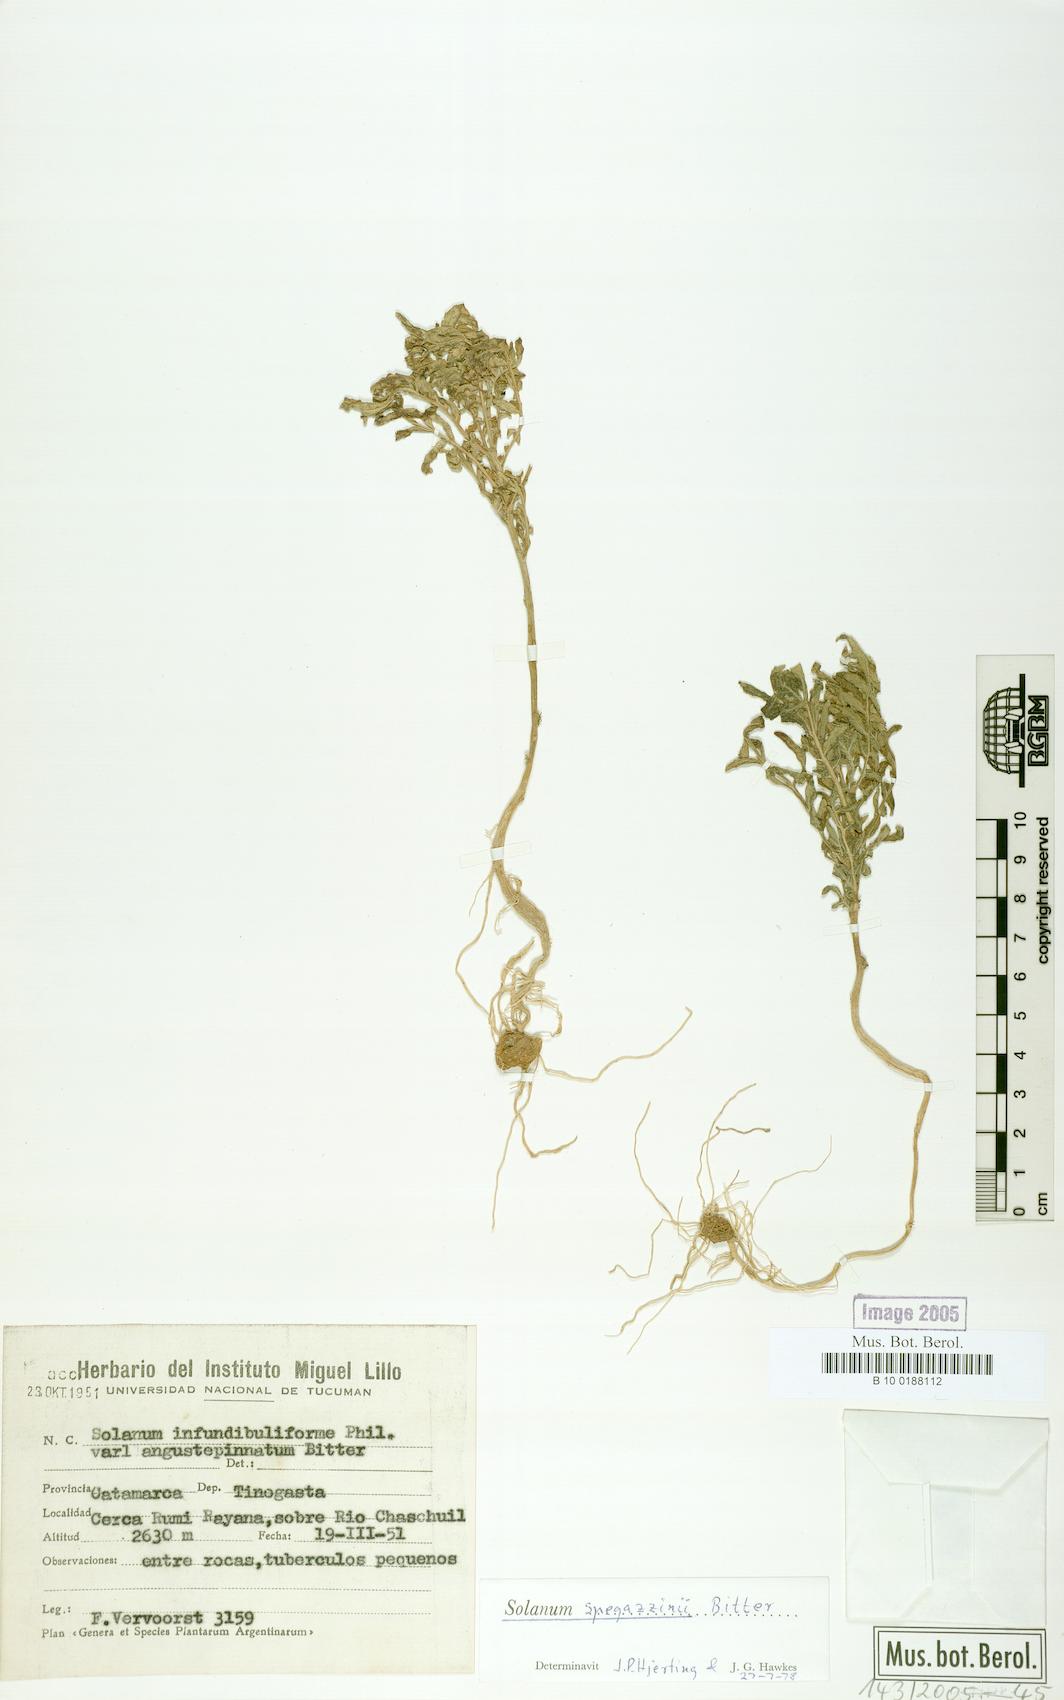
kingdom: Plantae
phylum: Tracheophyta
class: Magnoliopsida
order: Solanales
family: Solanaceae
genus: Solanum
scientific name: Solanum brevicaule
